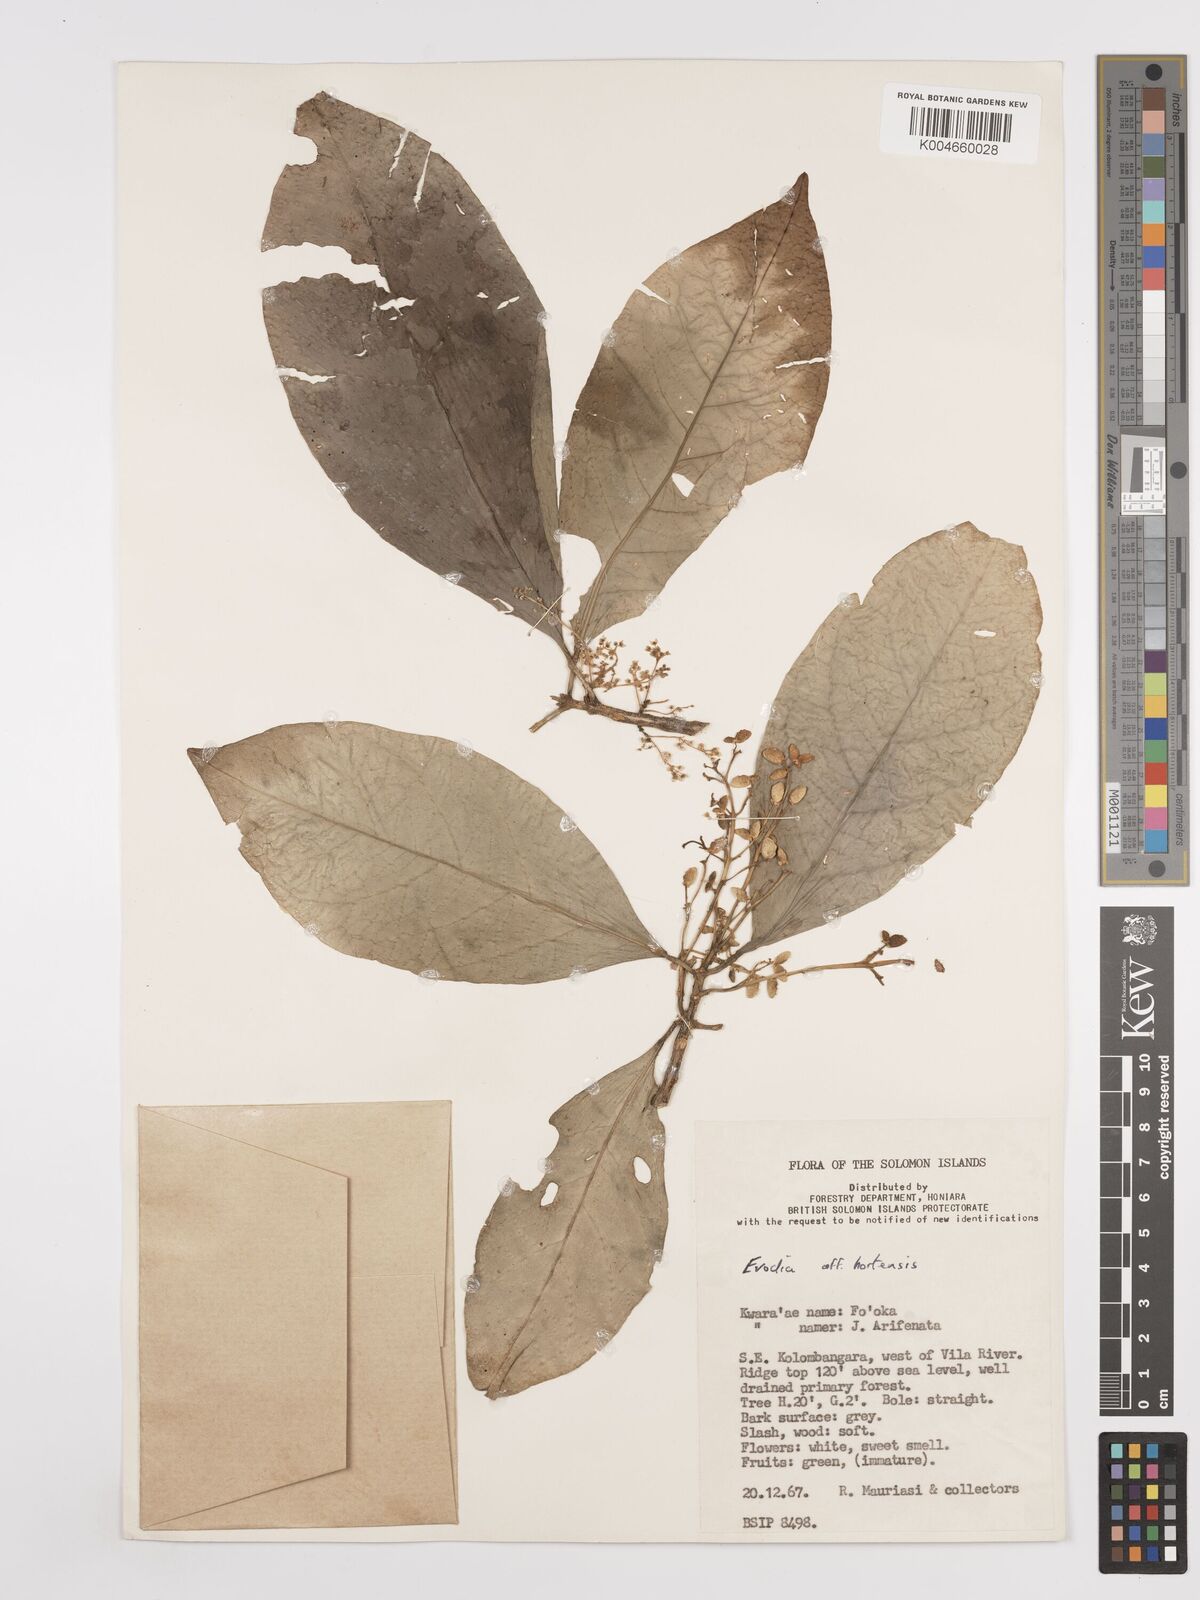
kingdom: Plantae
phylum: Tracheophyta
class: Magnoliopsida
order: Sapindales
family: Rutaceae
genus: Euodia
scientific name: Euodia hortensis
